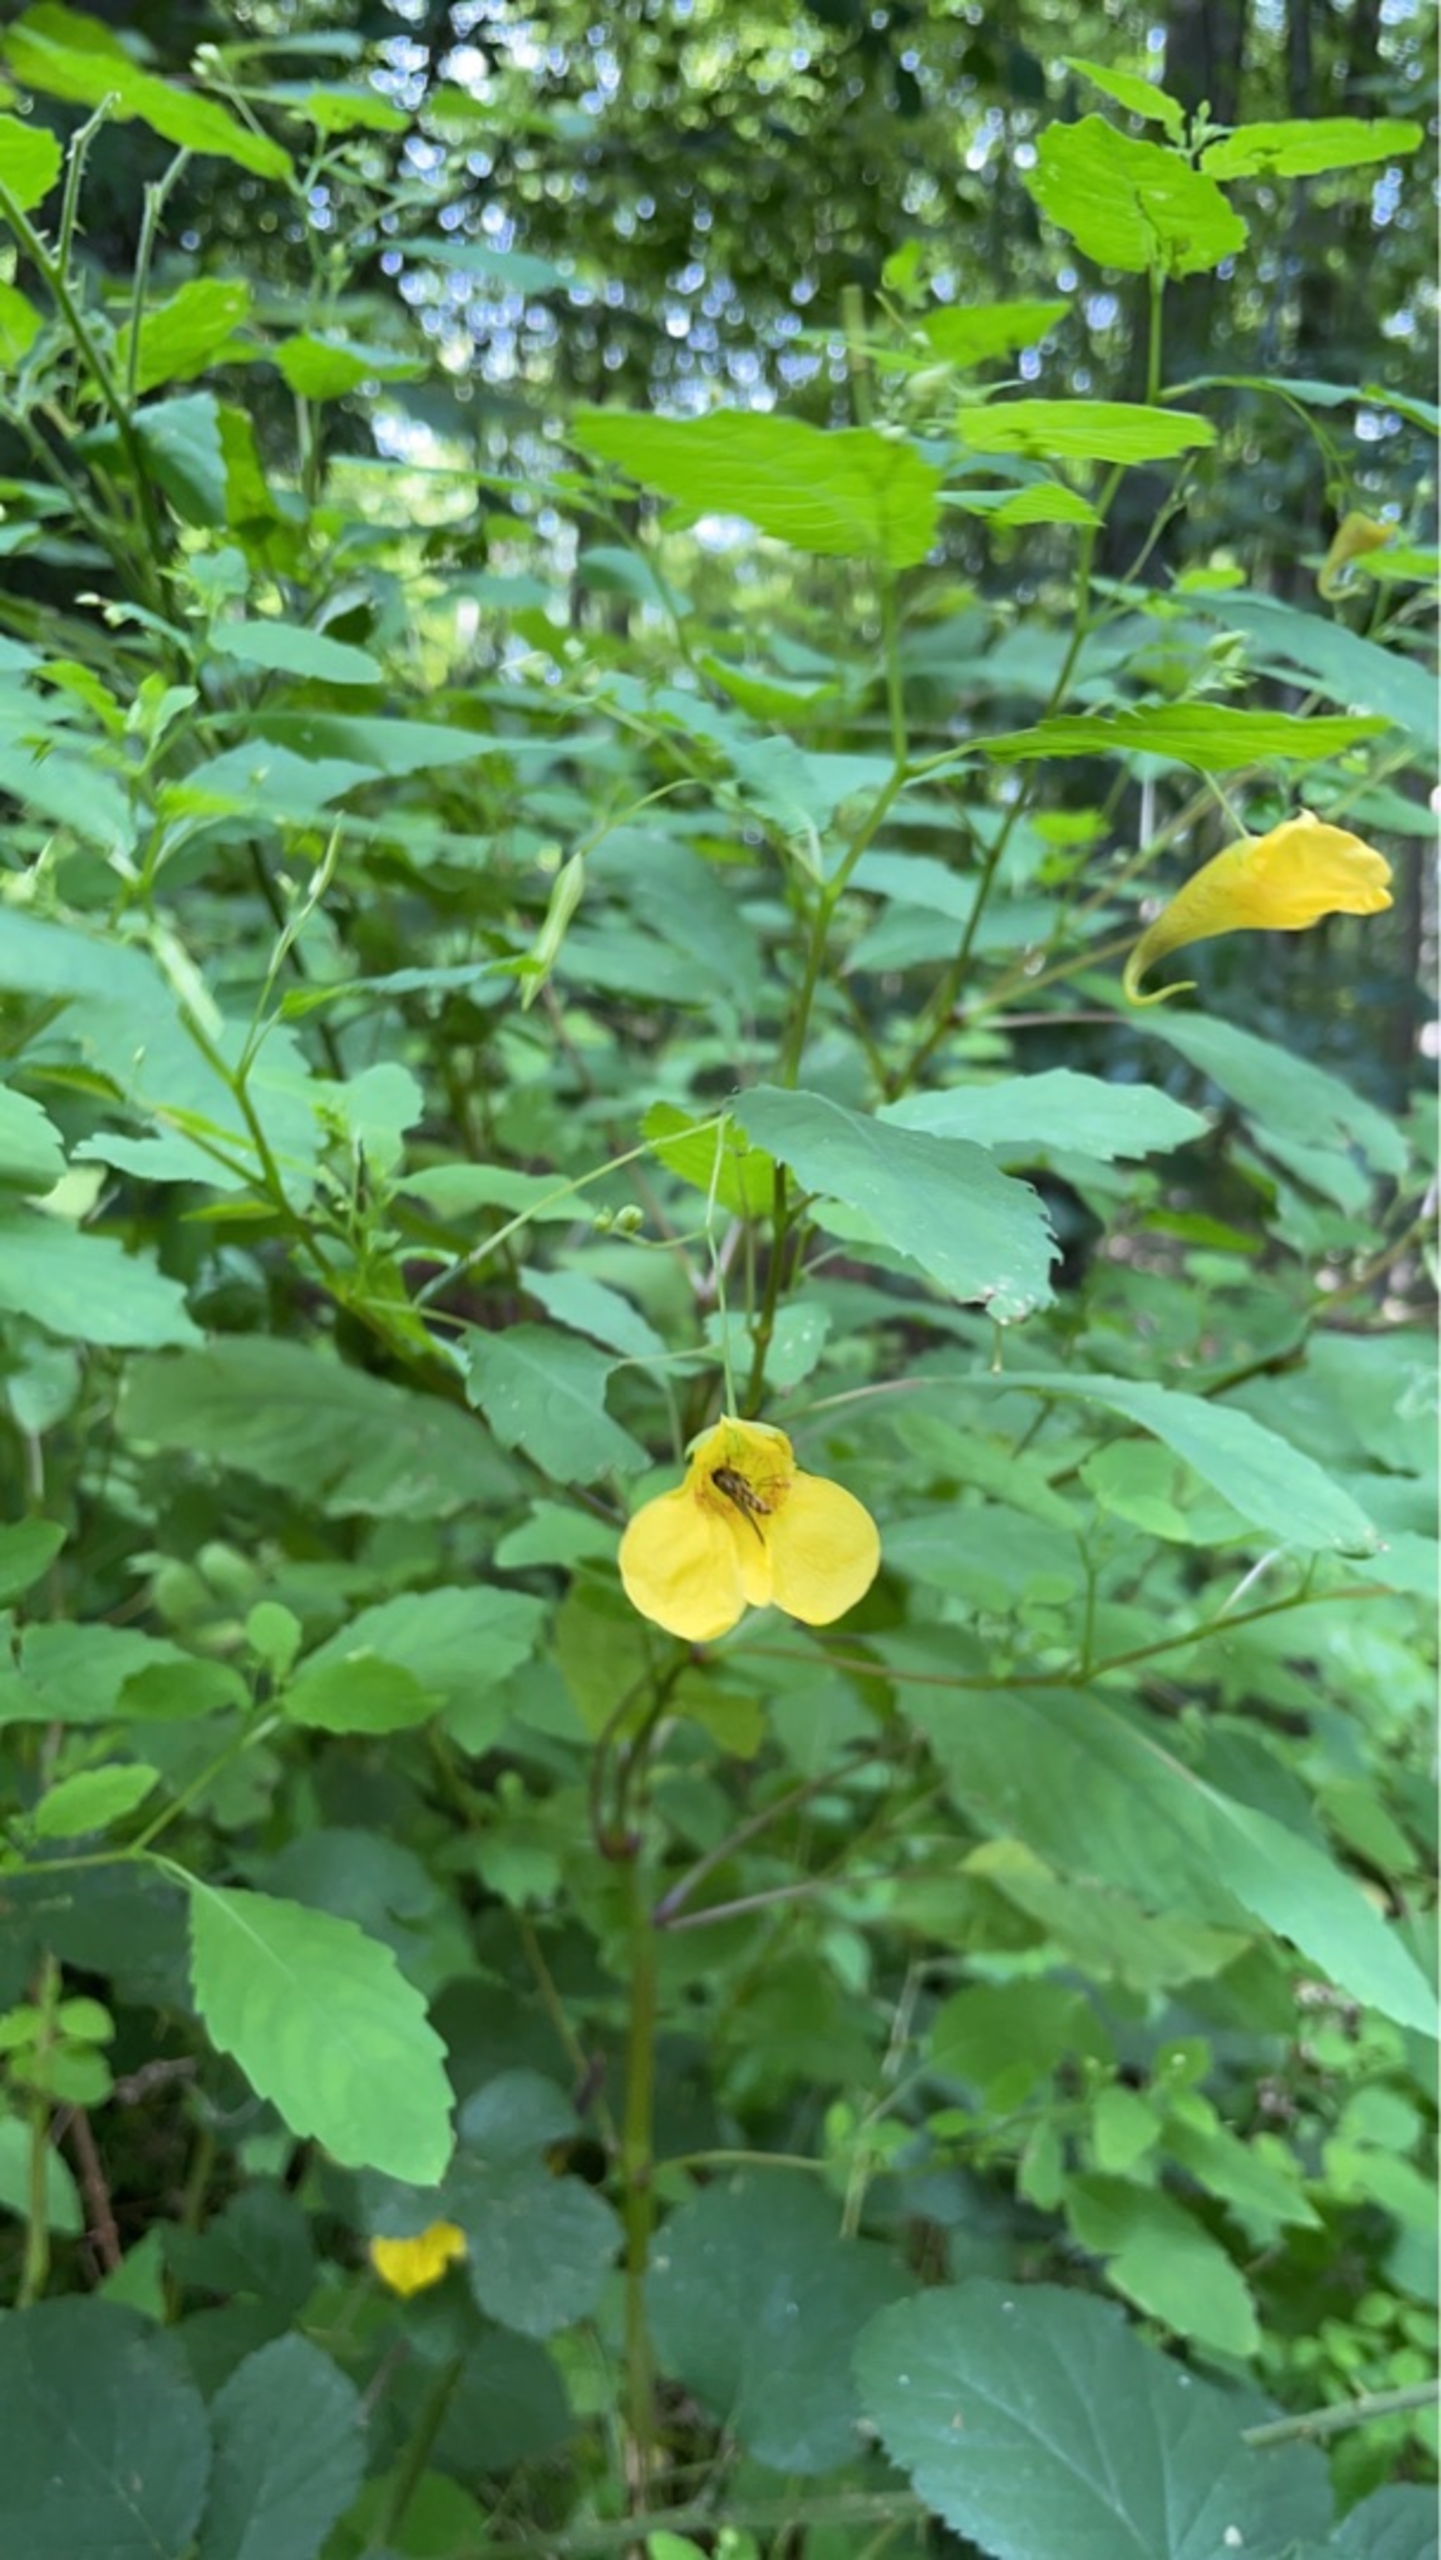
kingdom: Plantae
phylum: Tracheophyta
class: Magnoliopsida
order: Ericales
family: Balsaminaceae
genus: Impatiens
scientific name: Impatiens noli-tangere
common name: Spring-balsamin
